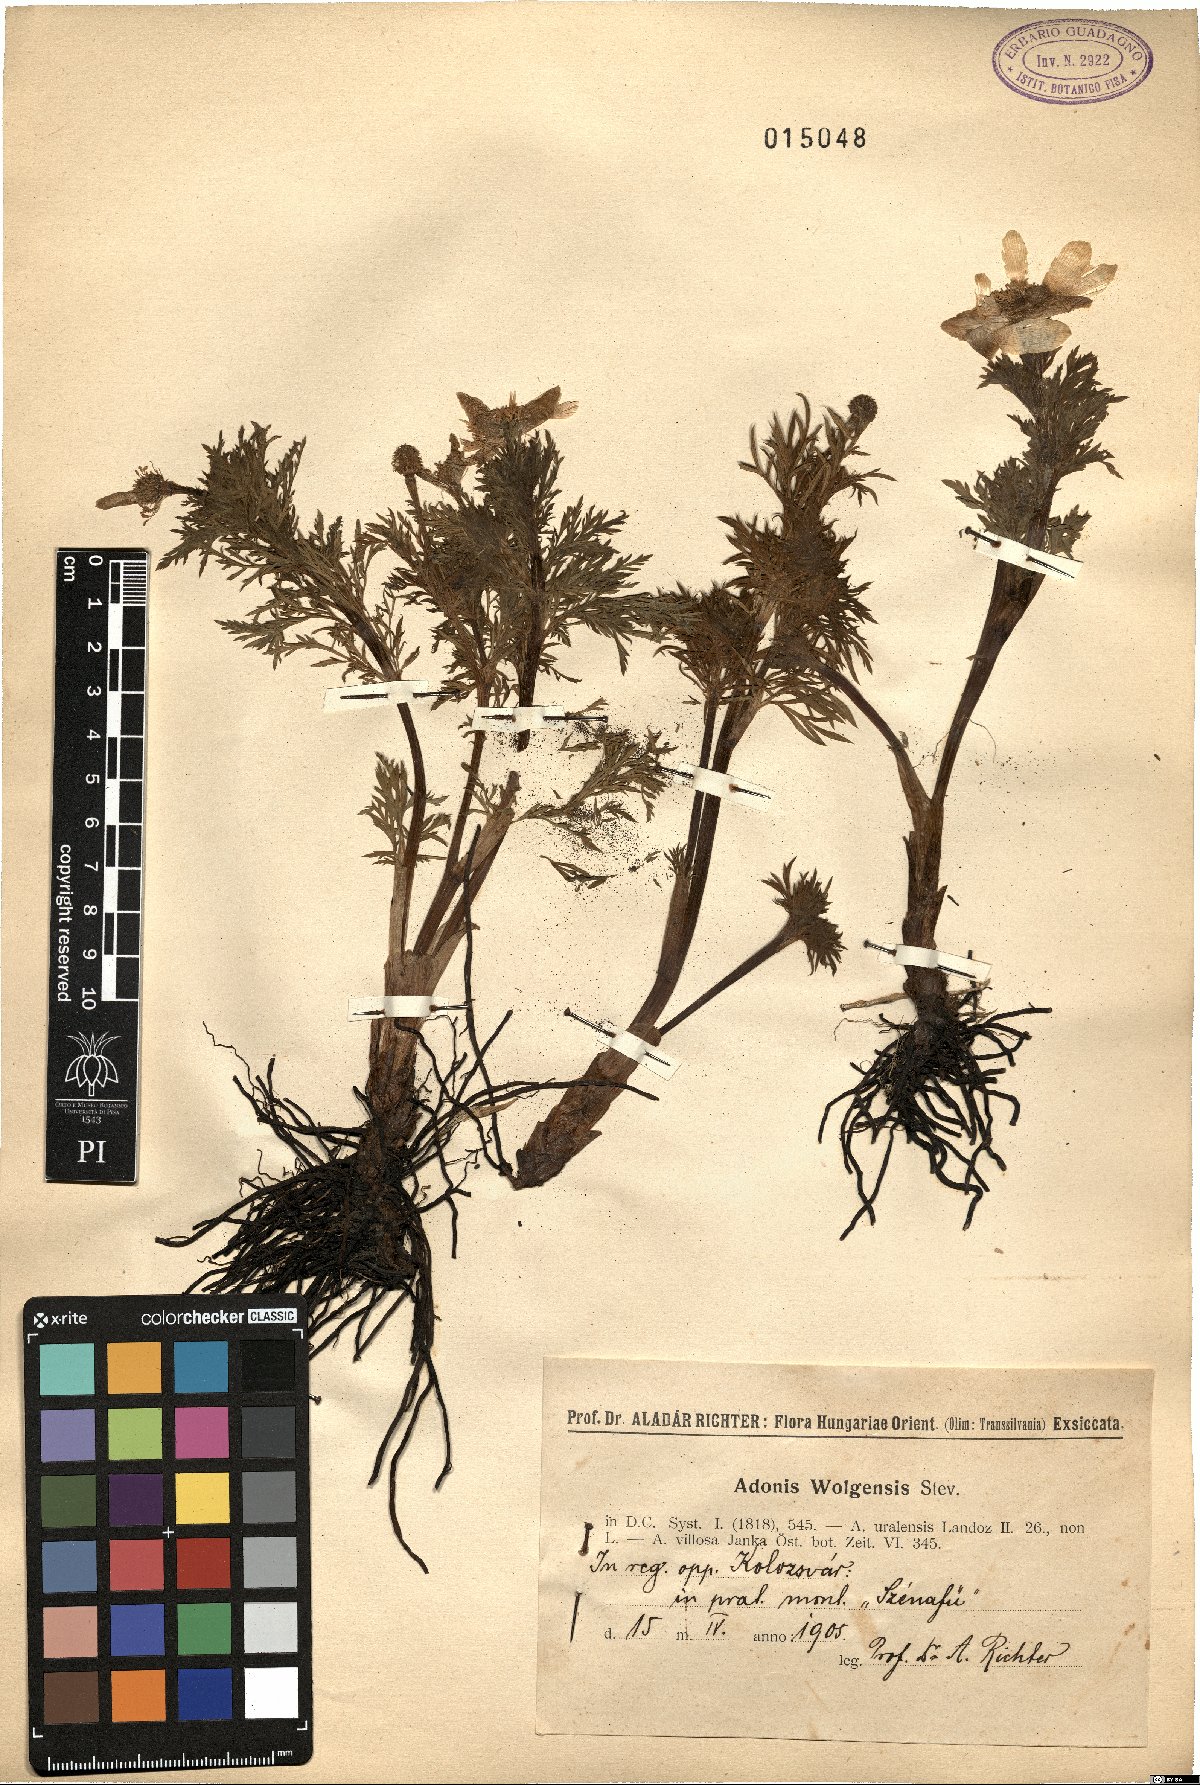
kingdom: Plantae
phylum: Tracheophyta
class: Magnoliopsida
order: Ranunculales
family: Ranunculaceae
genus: Adonis
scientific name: Adonis wolgensis
